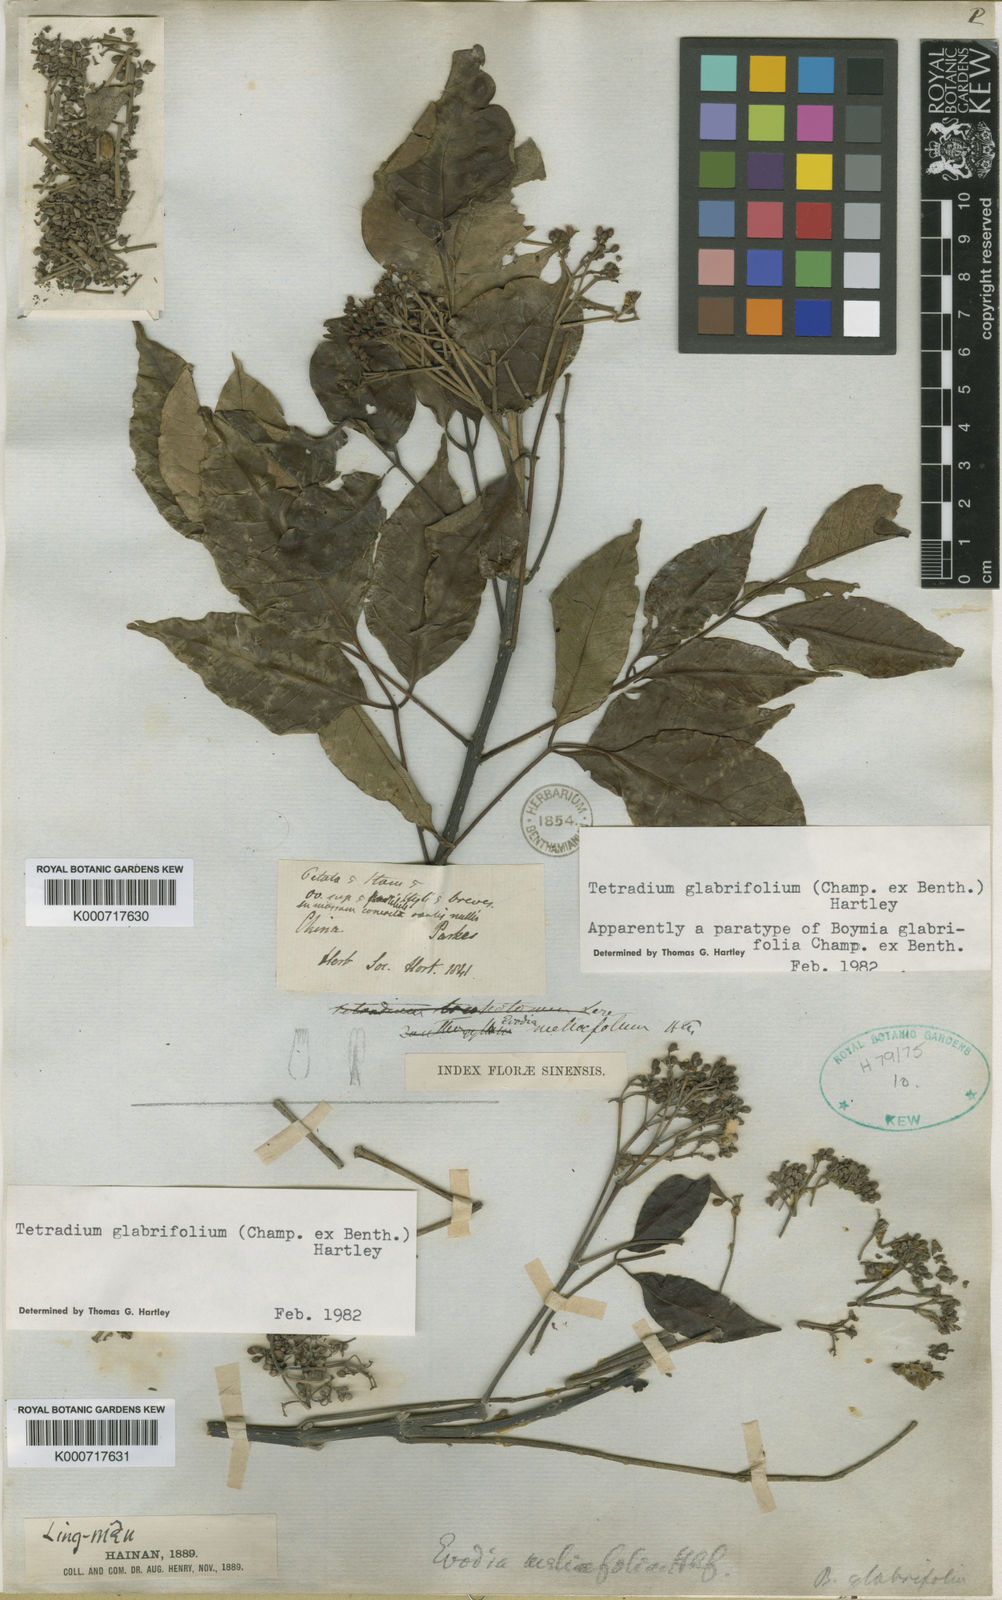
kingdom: Plantae
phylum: Tracheophyta
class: Magnoliopsida
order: Sapindales
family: Rutaceae
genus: Tetradium
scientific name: Tetradium glabrifolium
